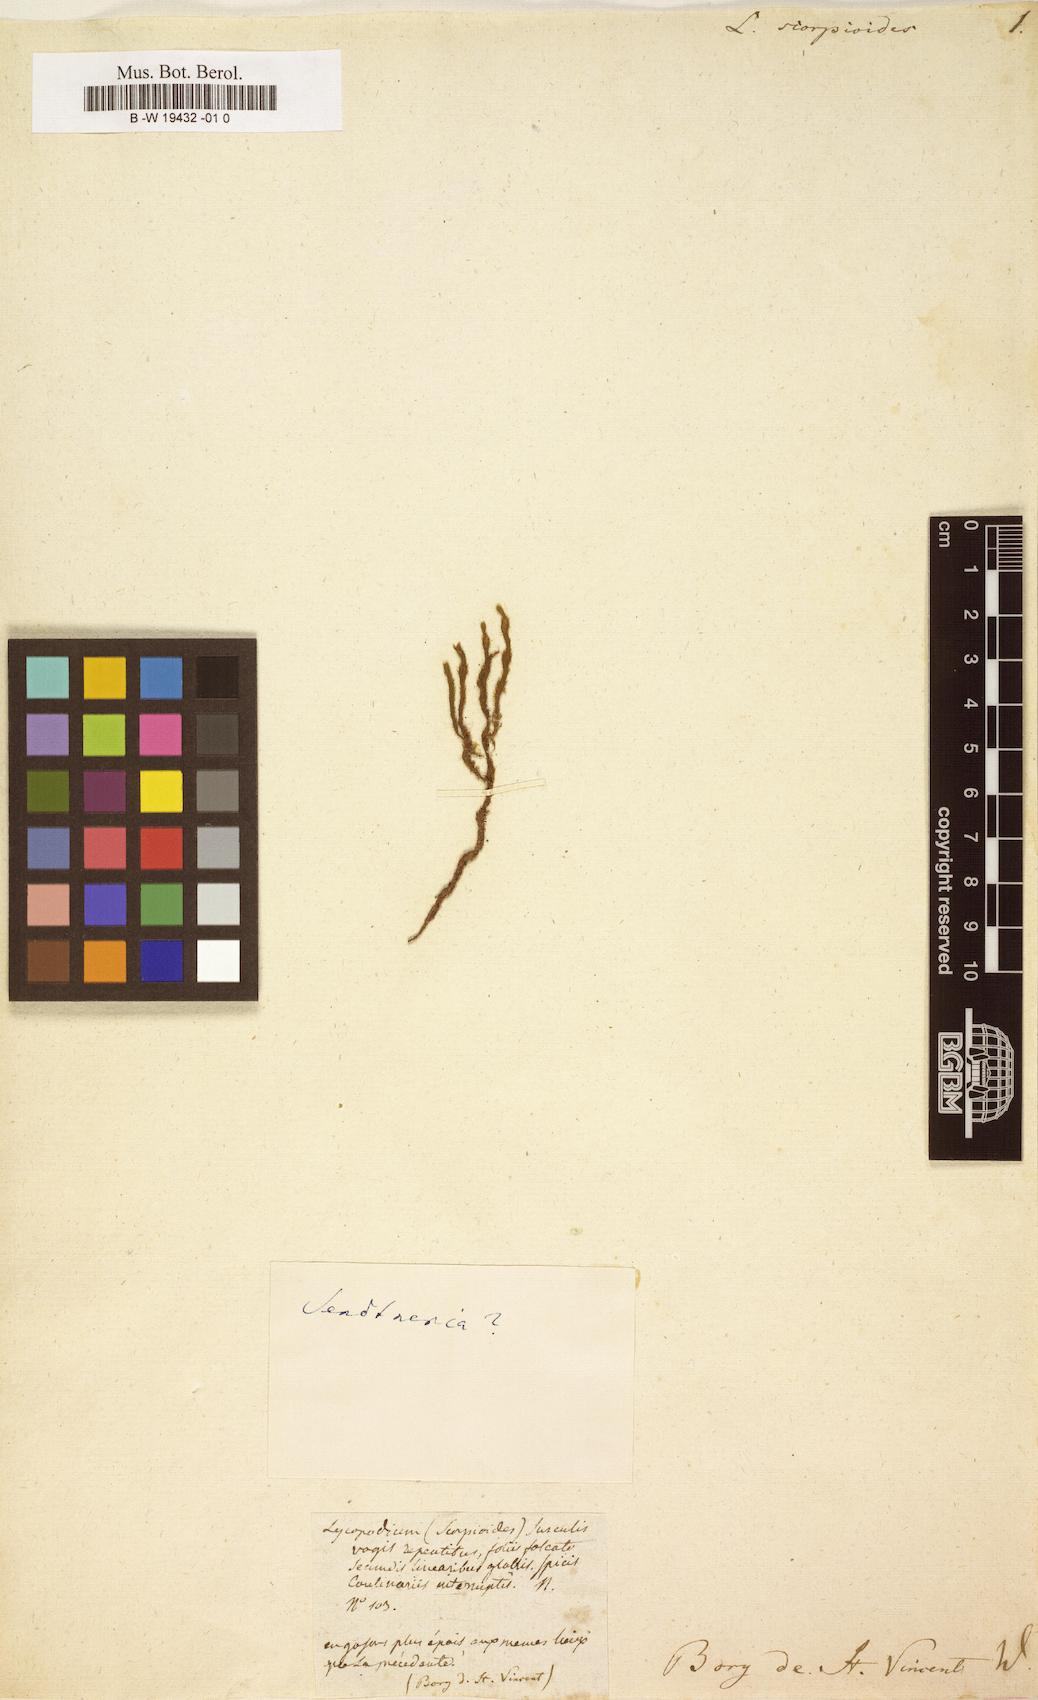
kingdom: Plantae
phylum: Tracheophyta
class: Lycopodiopsida
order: Lycopodiales
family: Lycopodiaceae
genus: Lycopodium
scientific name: Lycopodium
